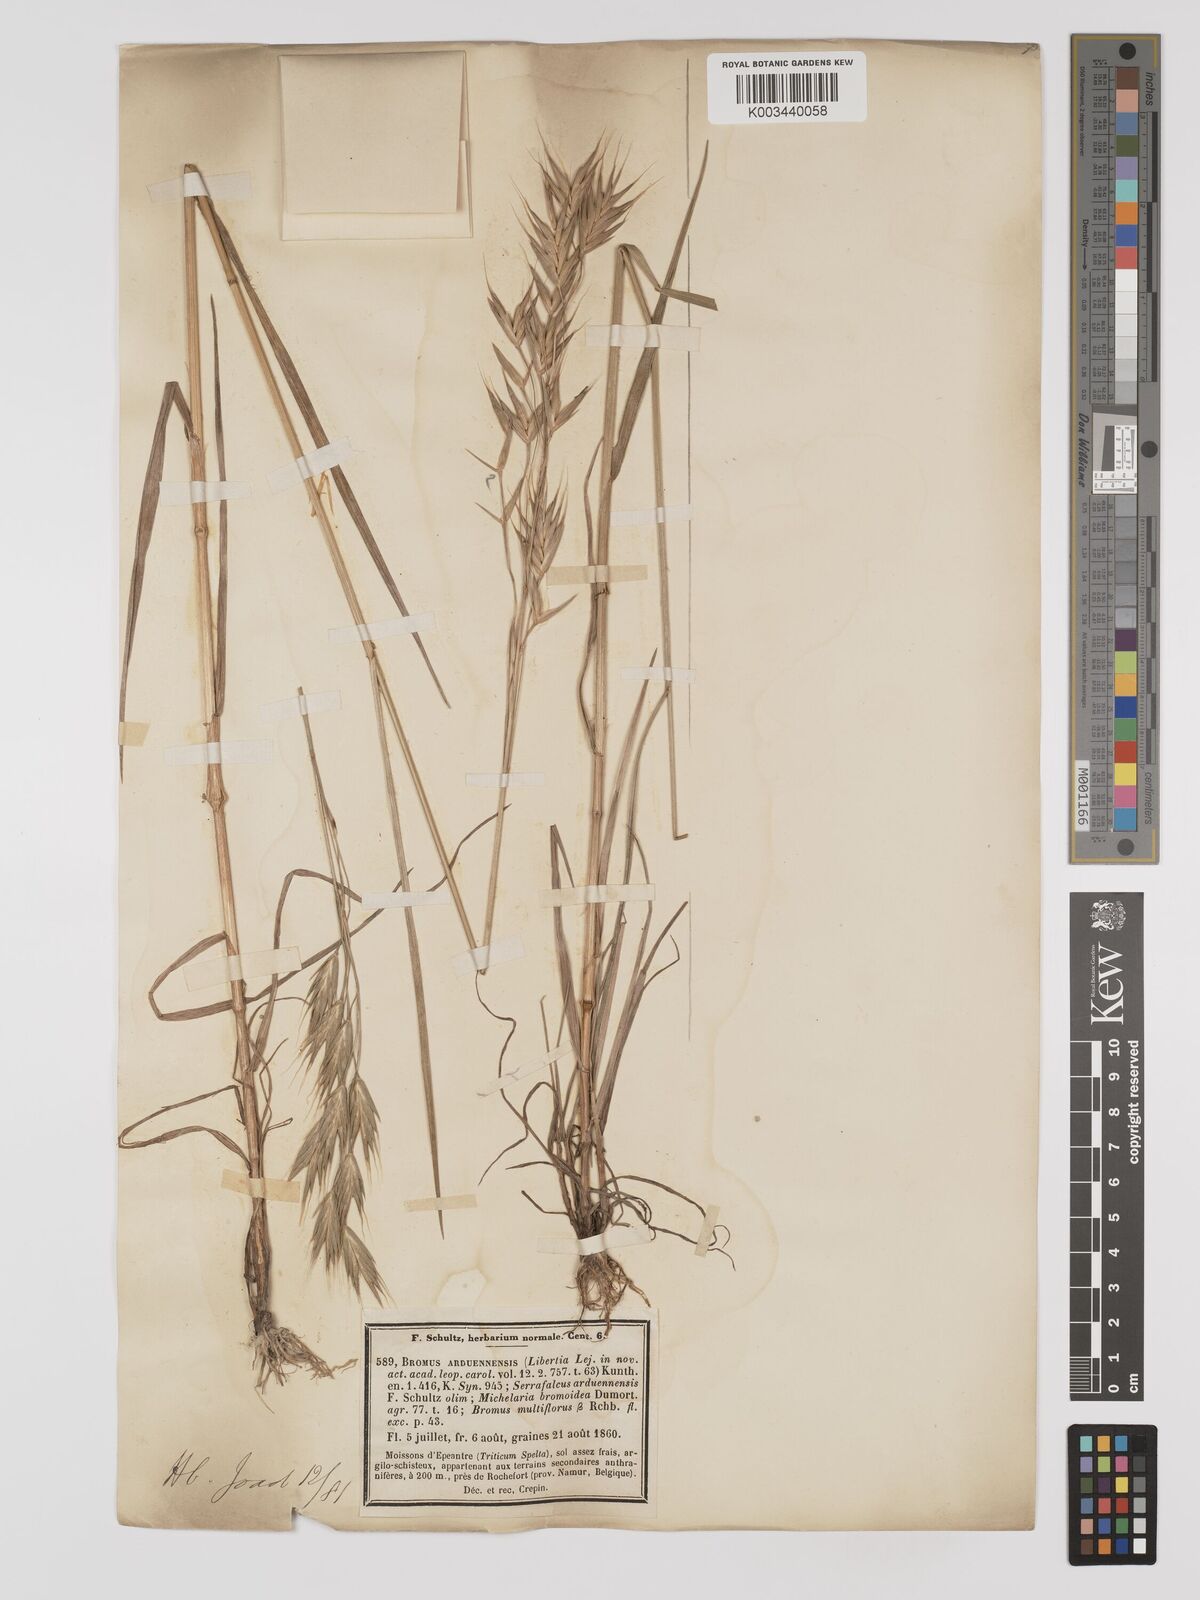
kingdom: Plantae
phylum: Tracheophyta
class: Liliopsida
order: Poales
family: Poaceae
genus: Bromus
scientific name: Bromus bromoideus
